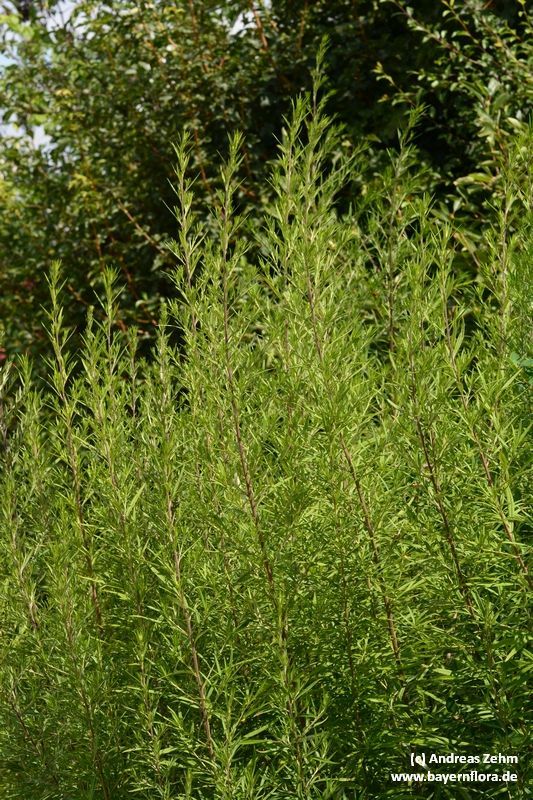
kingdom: Plantae
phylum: Tracheophyta
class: Magnoliopsida
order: Asterales
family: Asteraceae
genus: Artemisia
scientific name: Artemisia verlotiorum
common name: Chinese mugwort
